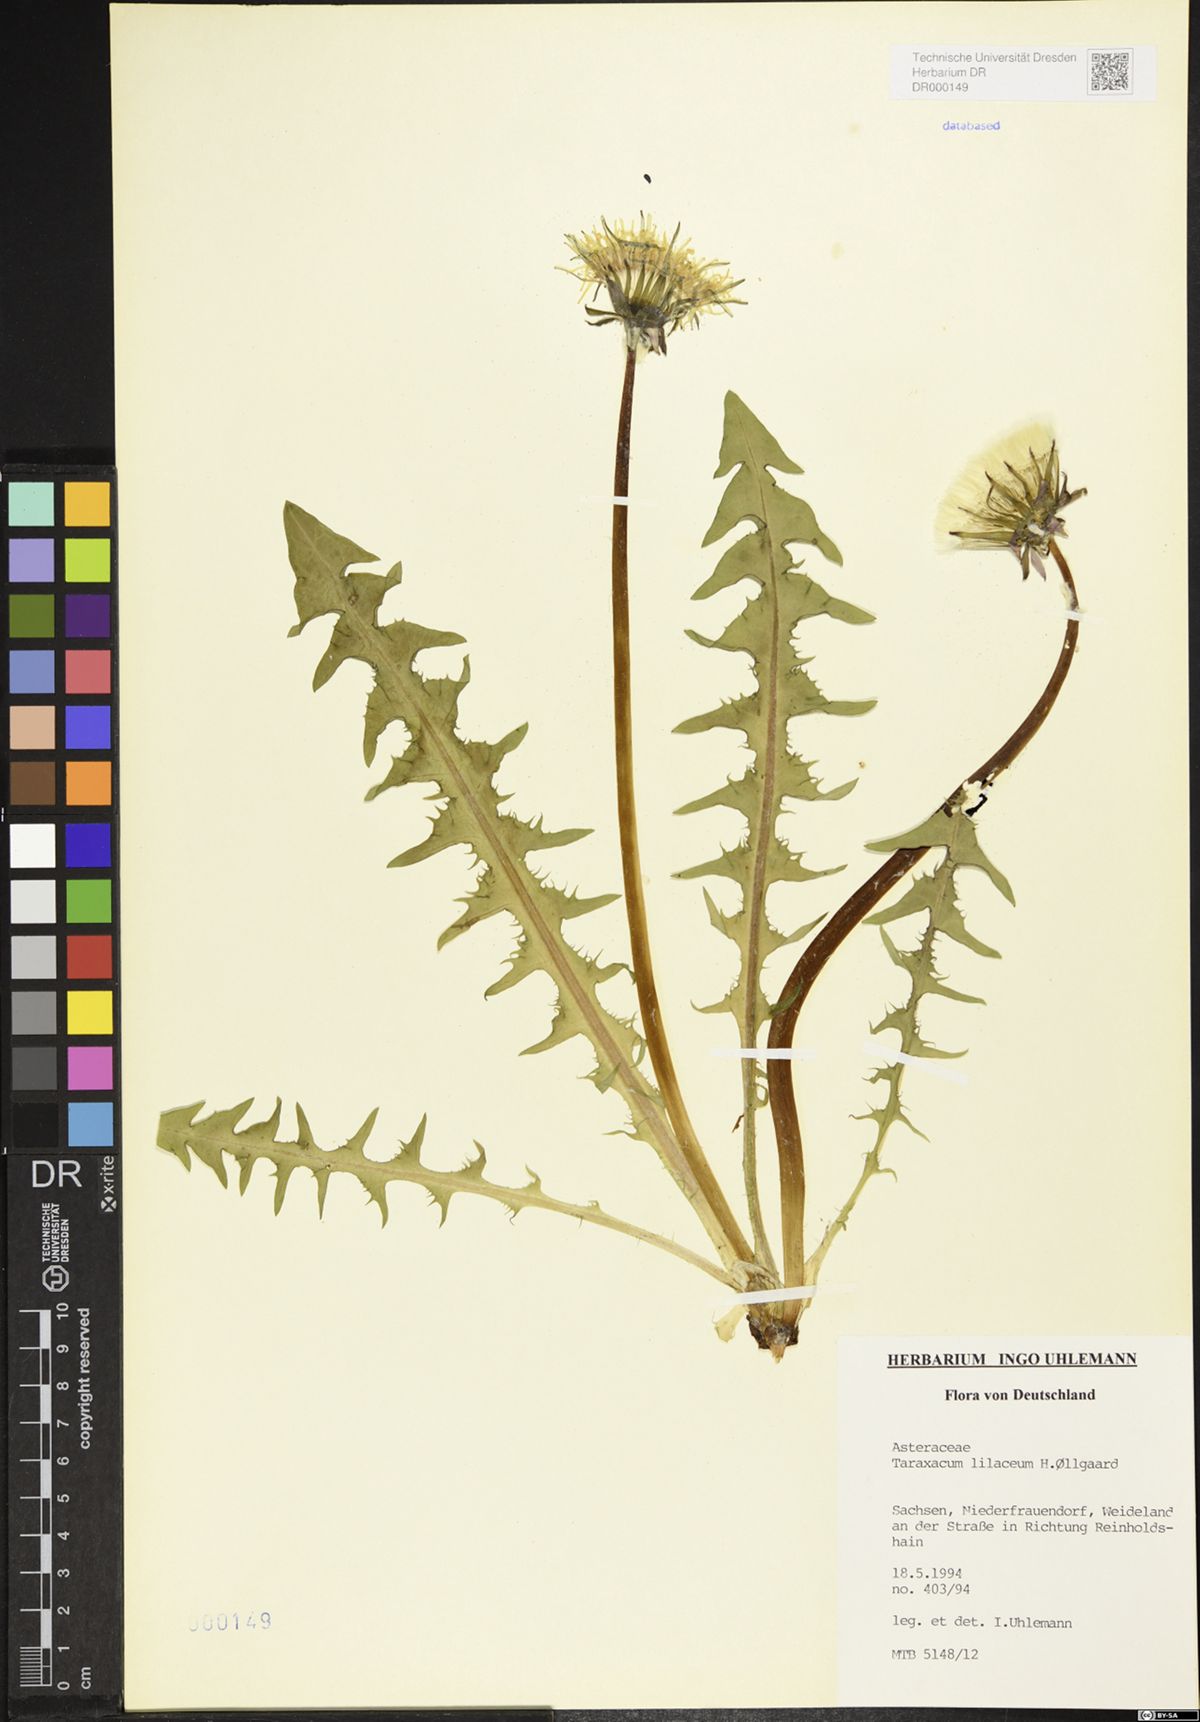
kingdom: Plantae
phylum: Tracheophyta
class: Magnoliopsida
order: Asterales
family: Asteraceae
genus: Taraxacum
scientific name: Taraxacum floccosum
